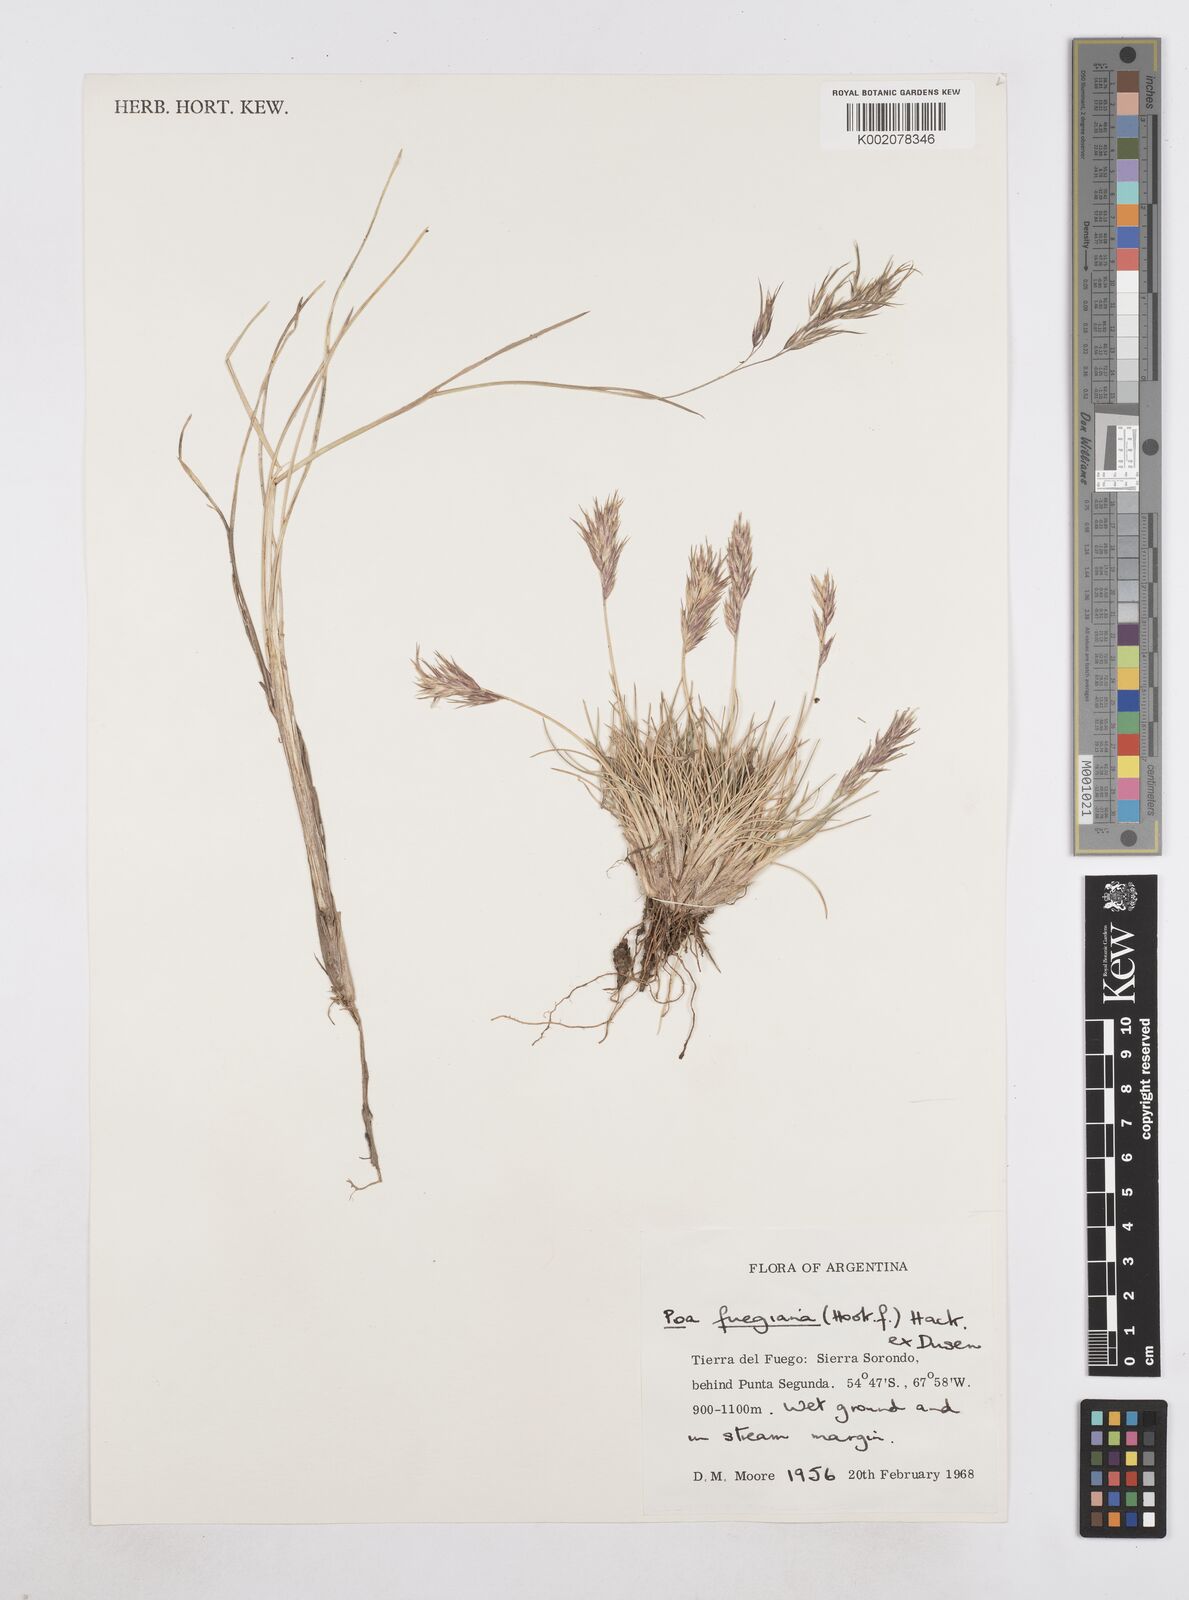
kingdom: Plantae
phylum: Tracheophyta
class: Liliopsida
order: Poales
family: Poaceae
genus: Poa
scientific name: Poa alopecurus
